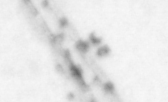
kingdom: Animalia
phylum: Chordata
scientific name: Chordata
